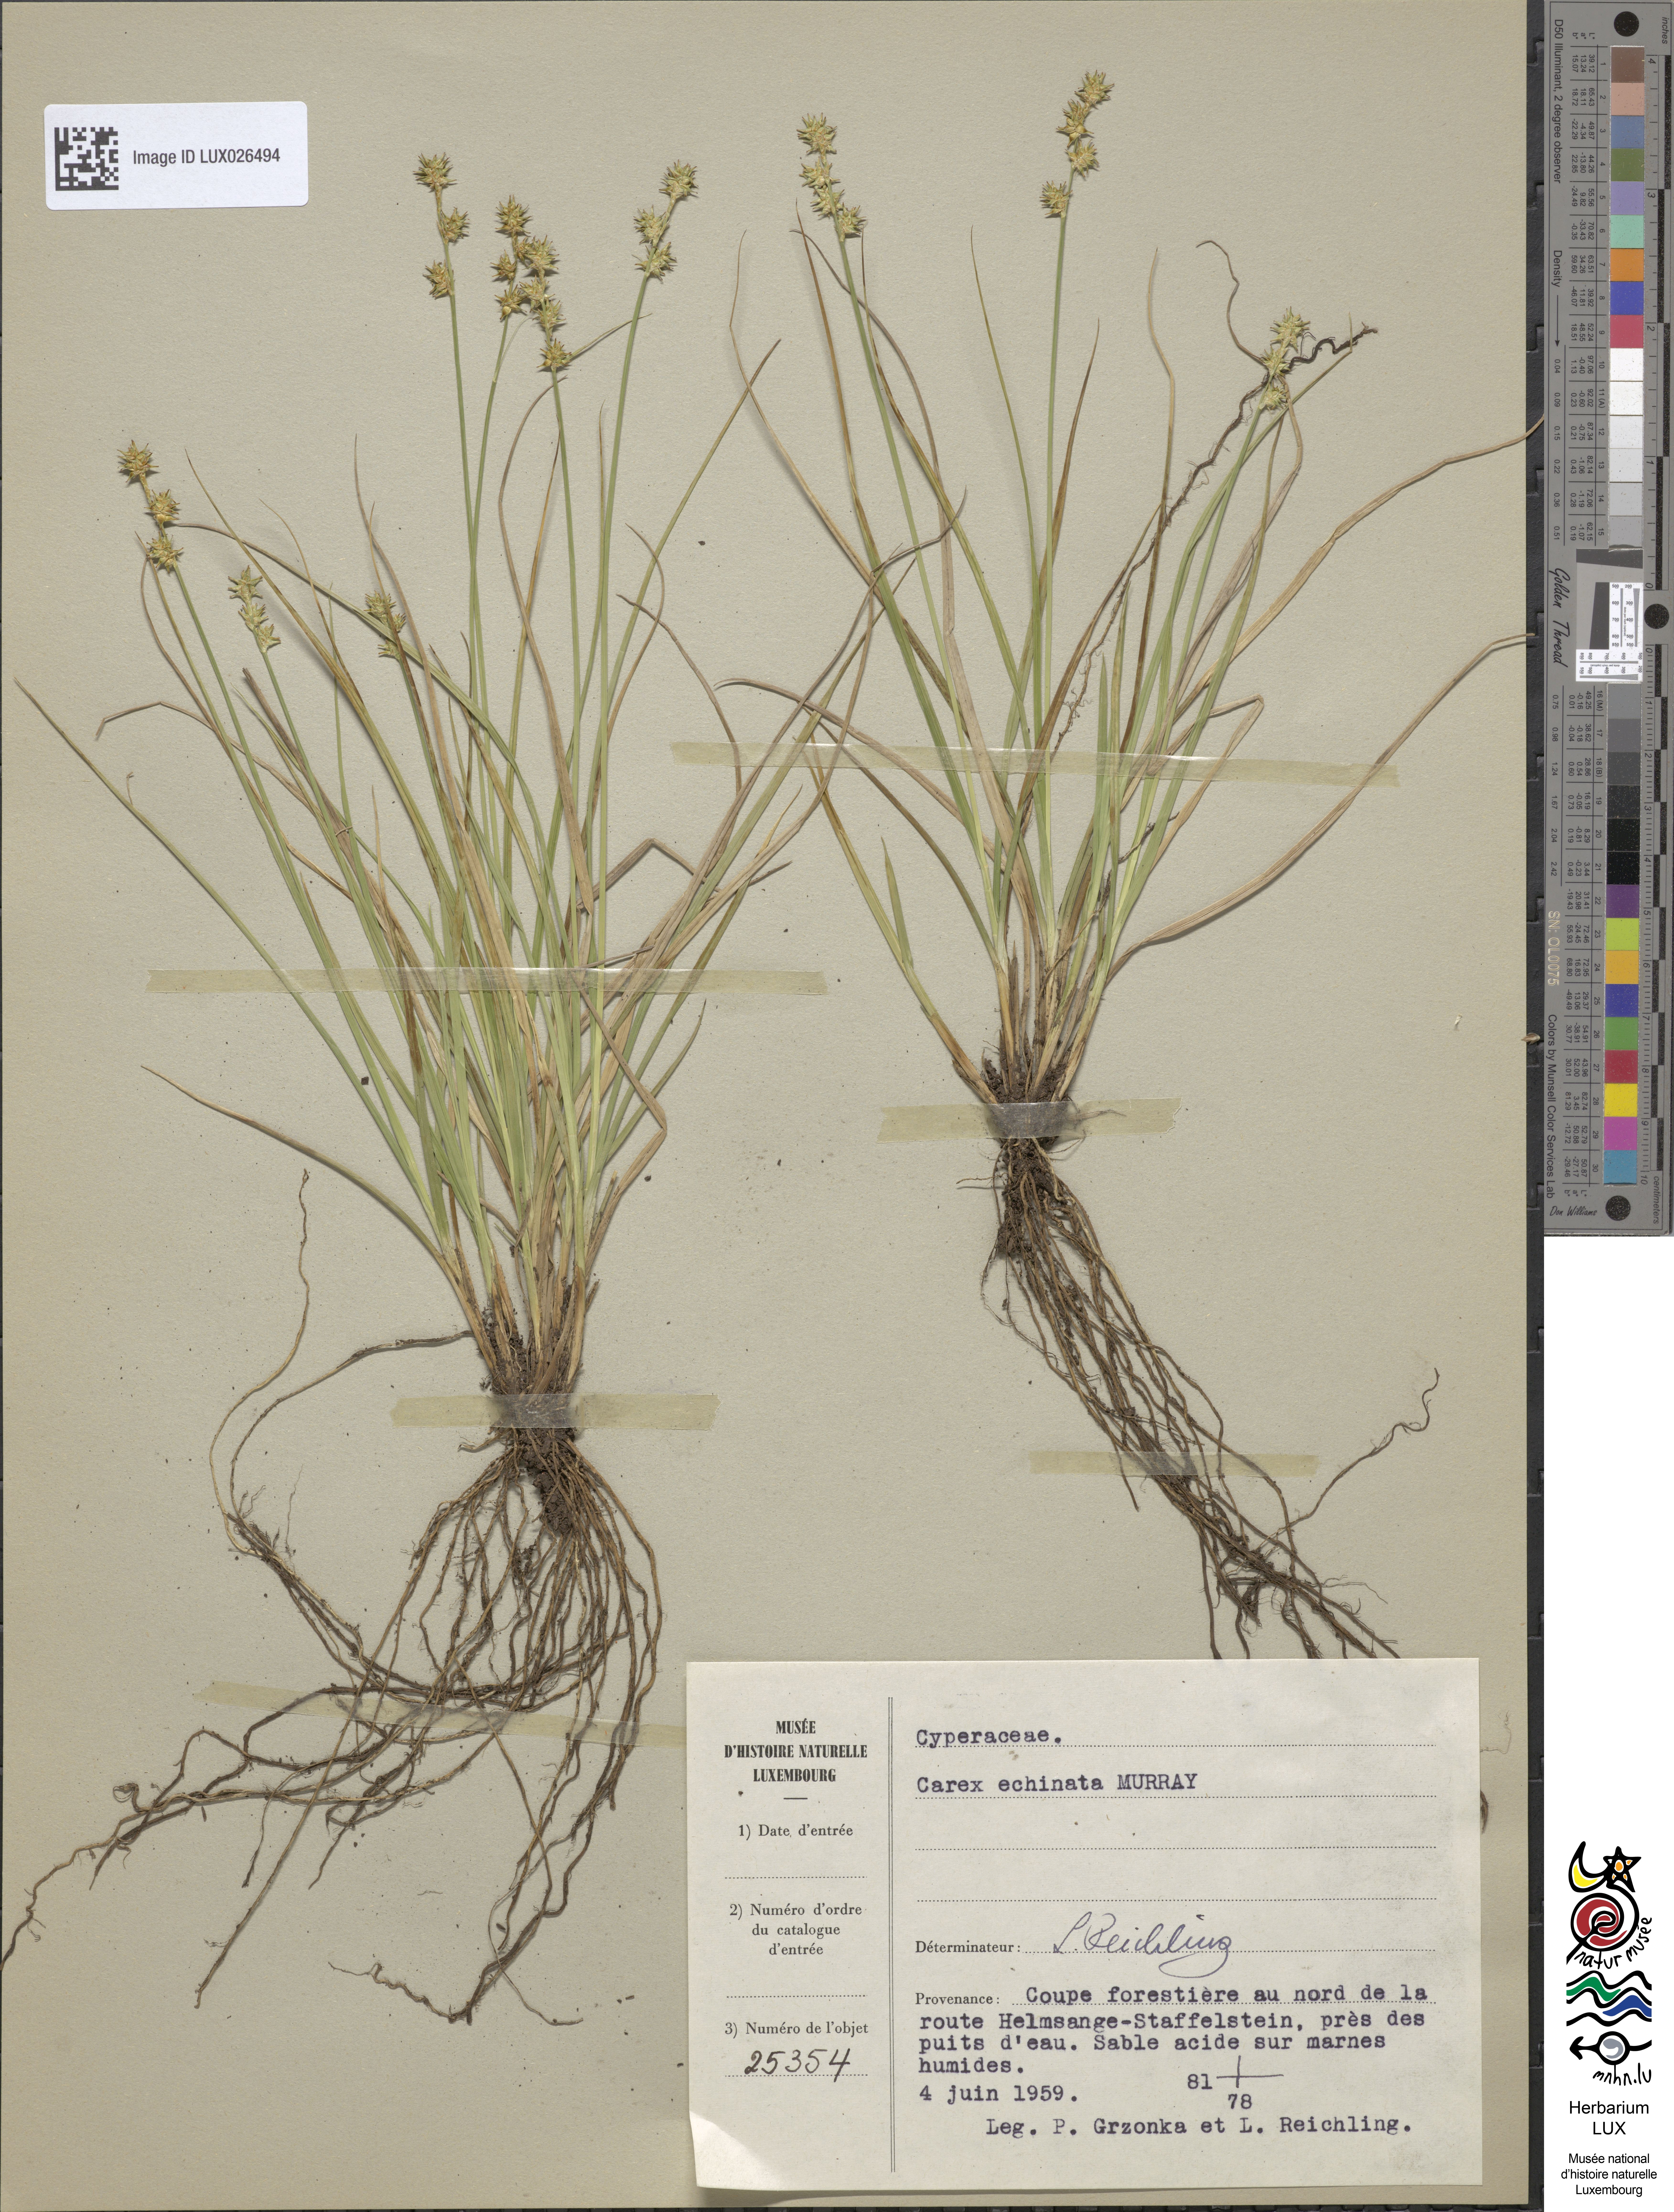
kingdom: Plantae
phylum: Tracheophyta
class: Liliopsida
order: Poales
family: Cyperaceae
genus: Carex
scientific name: Carex echinata
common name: Star sedge
